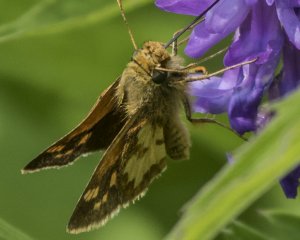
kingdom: Animalia
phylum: Arthropoda
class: Insecta
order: Lepidoptera
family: Hesperiidae
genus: Polites
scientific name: Polites coras
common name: Peck's Skipper
